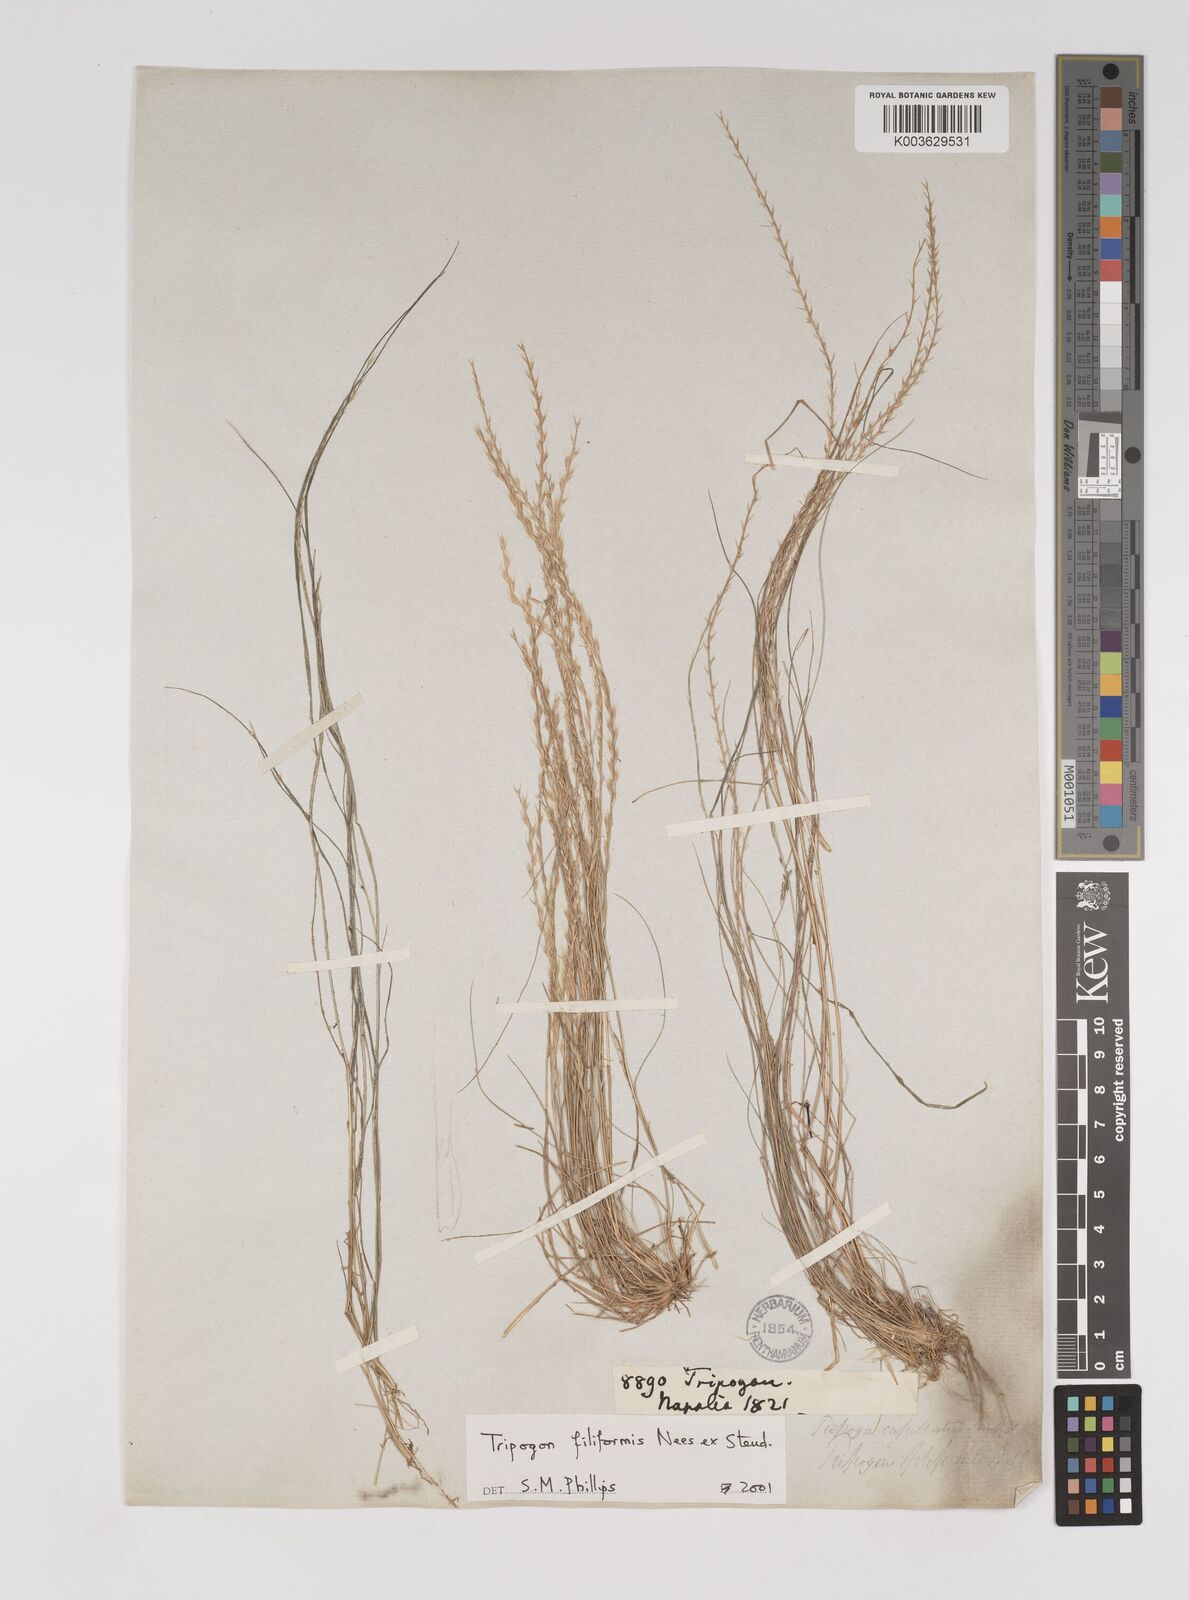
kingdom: Plantae
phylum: Tracheophyta
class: Liliopsida
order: Poales
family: Poaceae
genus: Tripogon
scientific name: Tripogon filiformis
